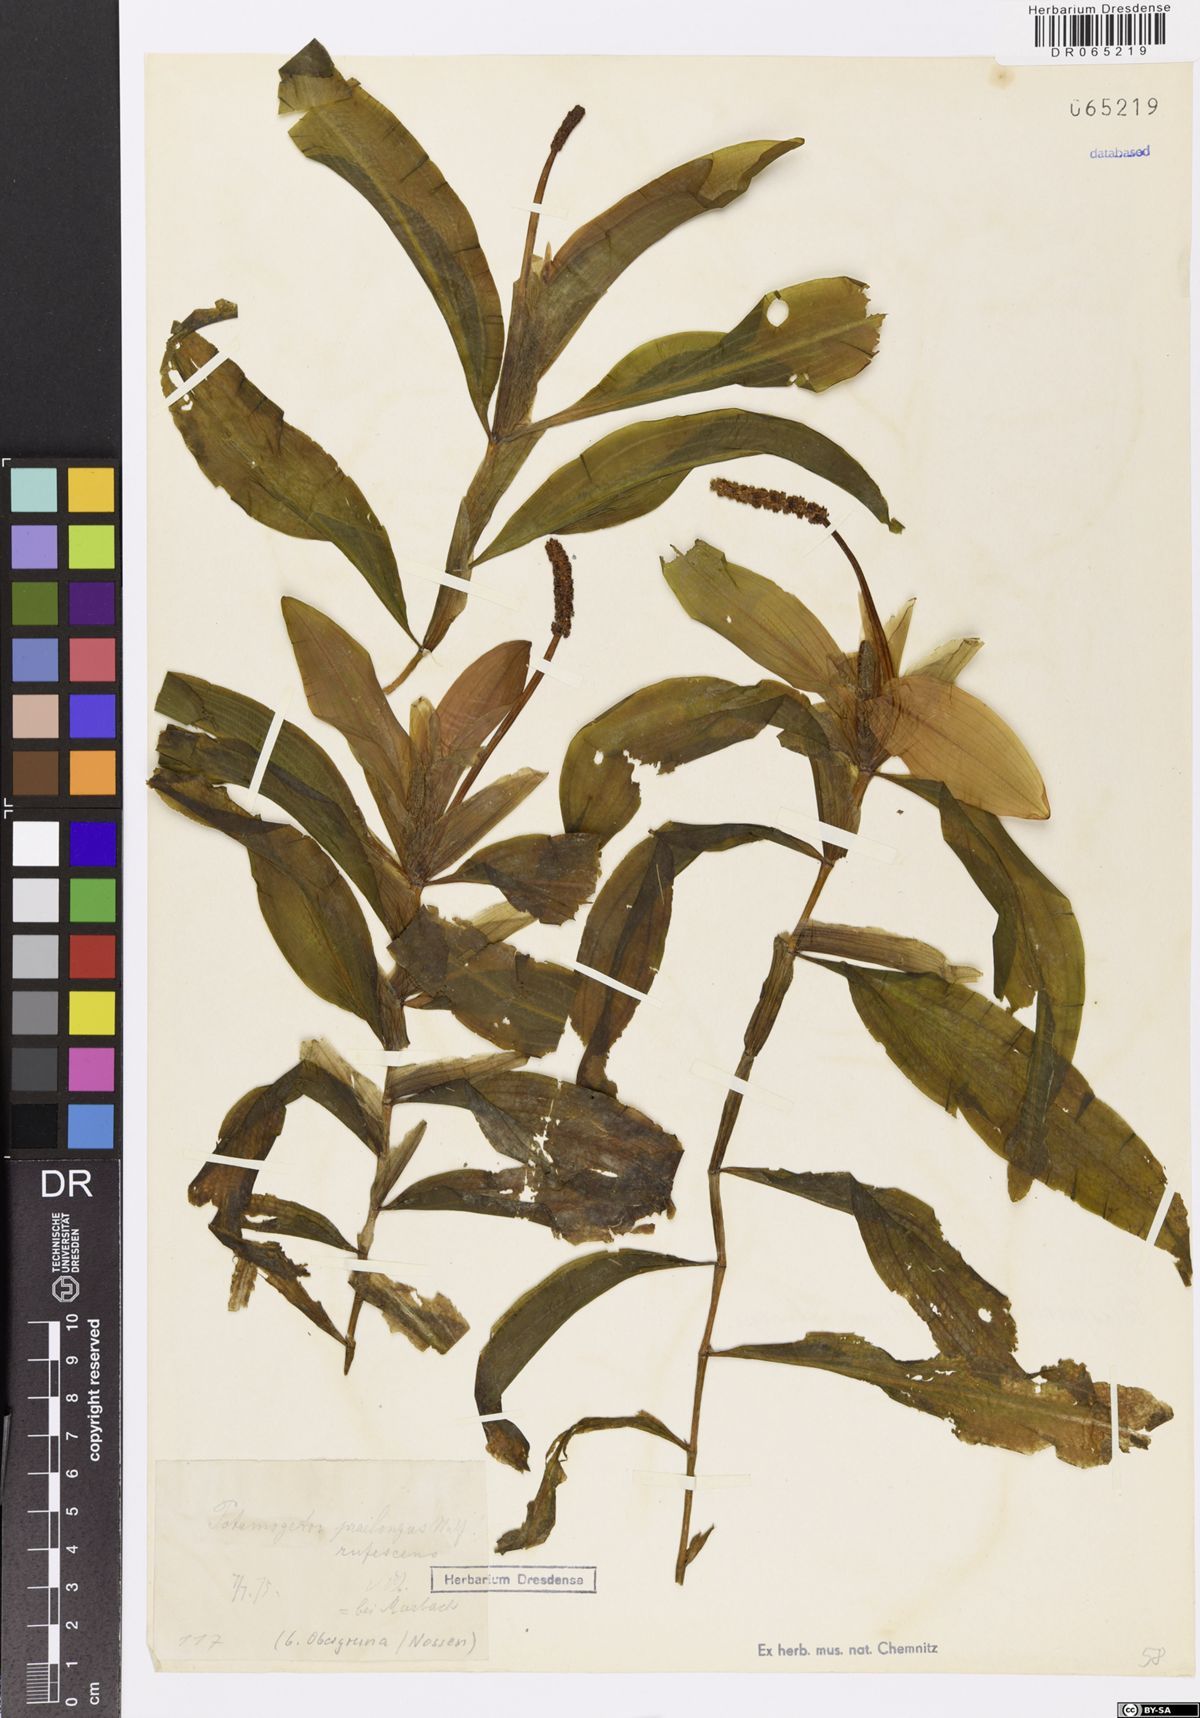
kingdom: Plantae
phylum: Tracheophyta
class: Liliopsida
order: Alismatales
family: Potamogetonaceae
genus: Potamogeton
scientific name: Potamogeton praelongus
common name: Long-stalked pondweed
